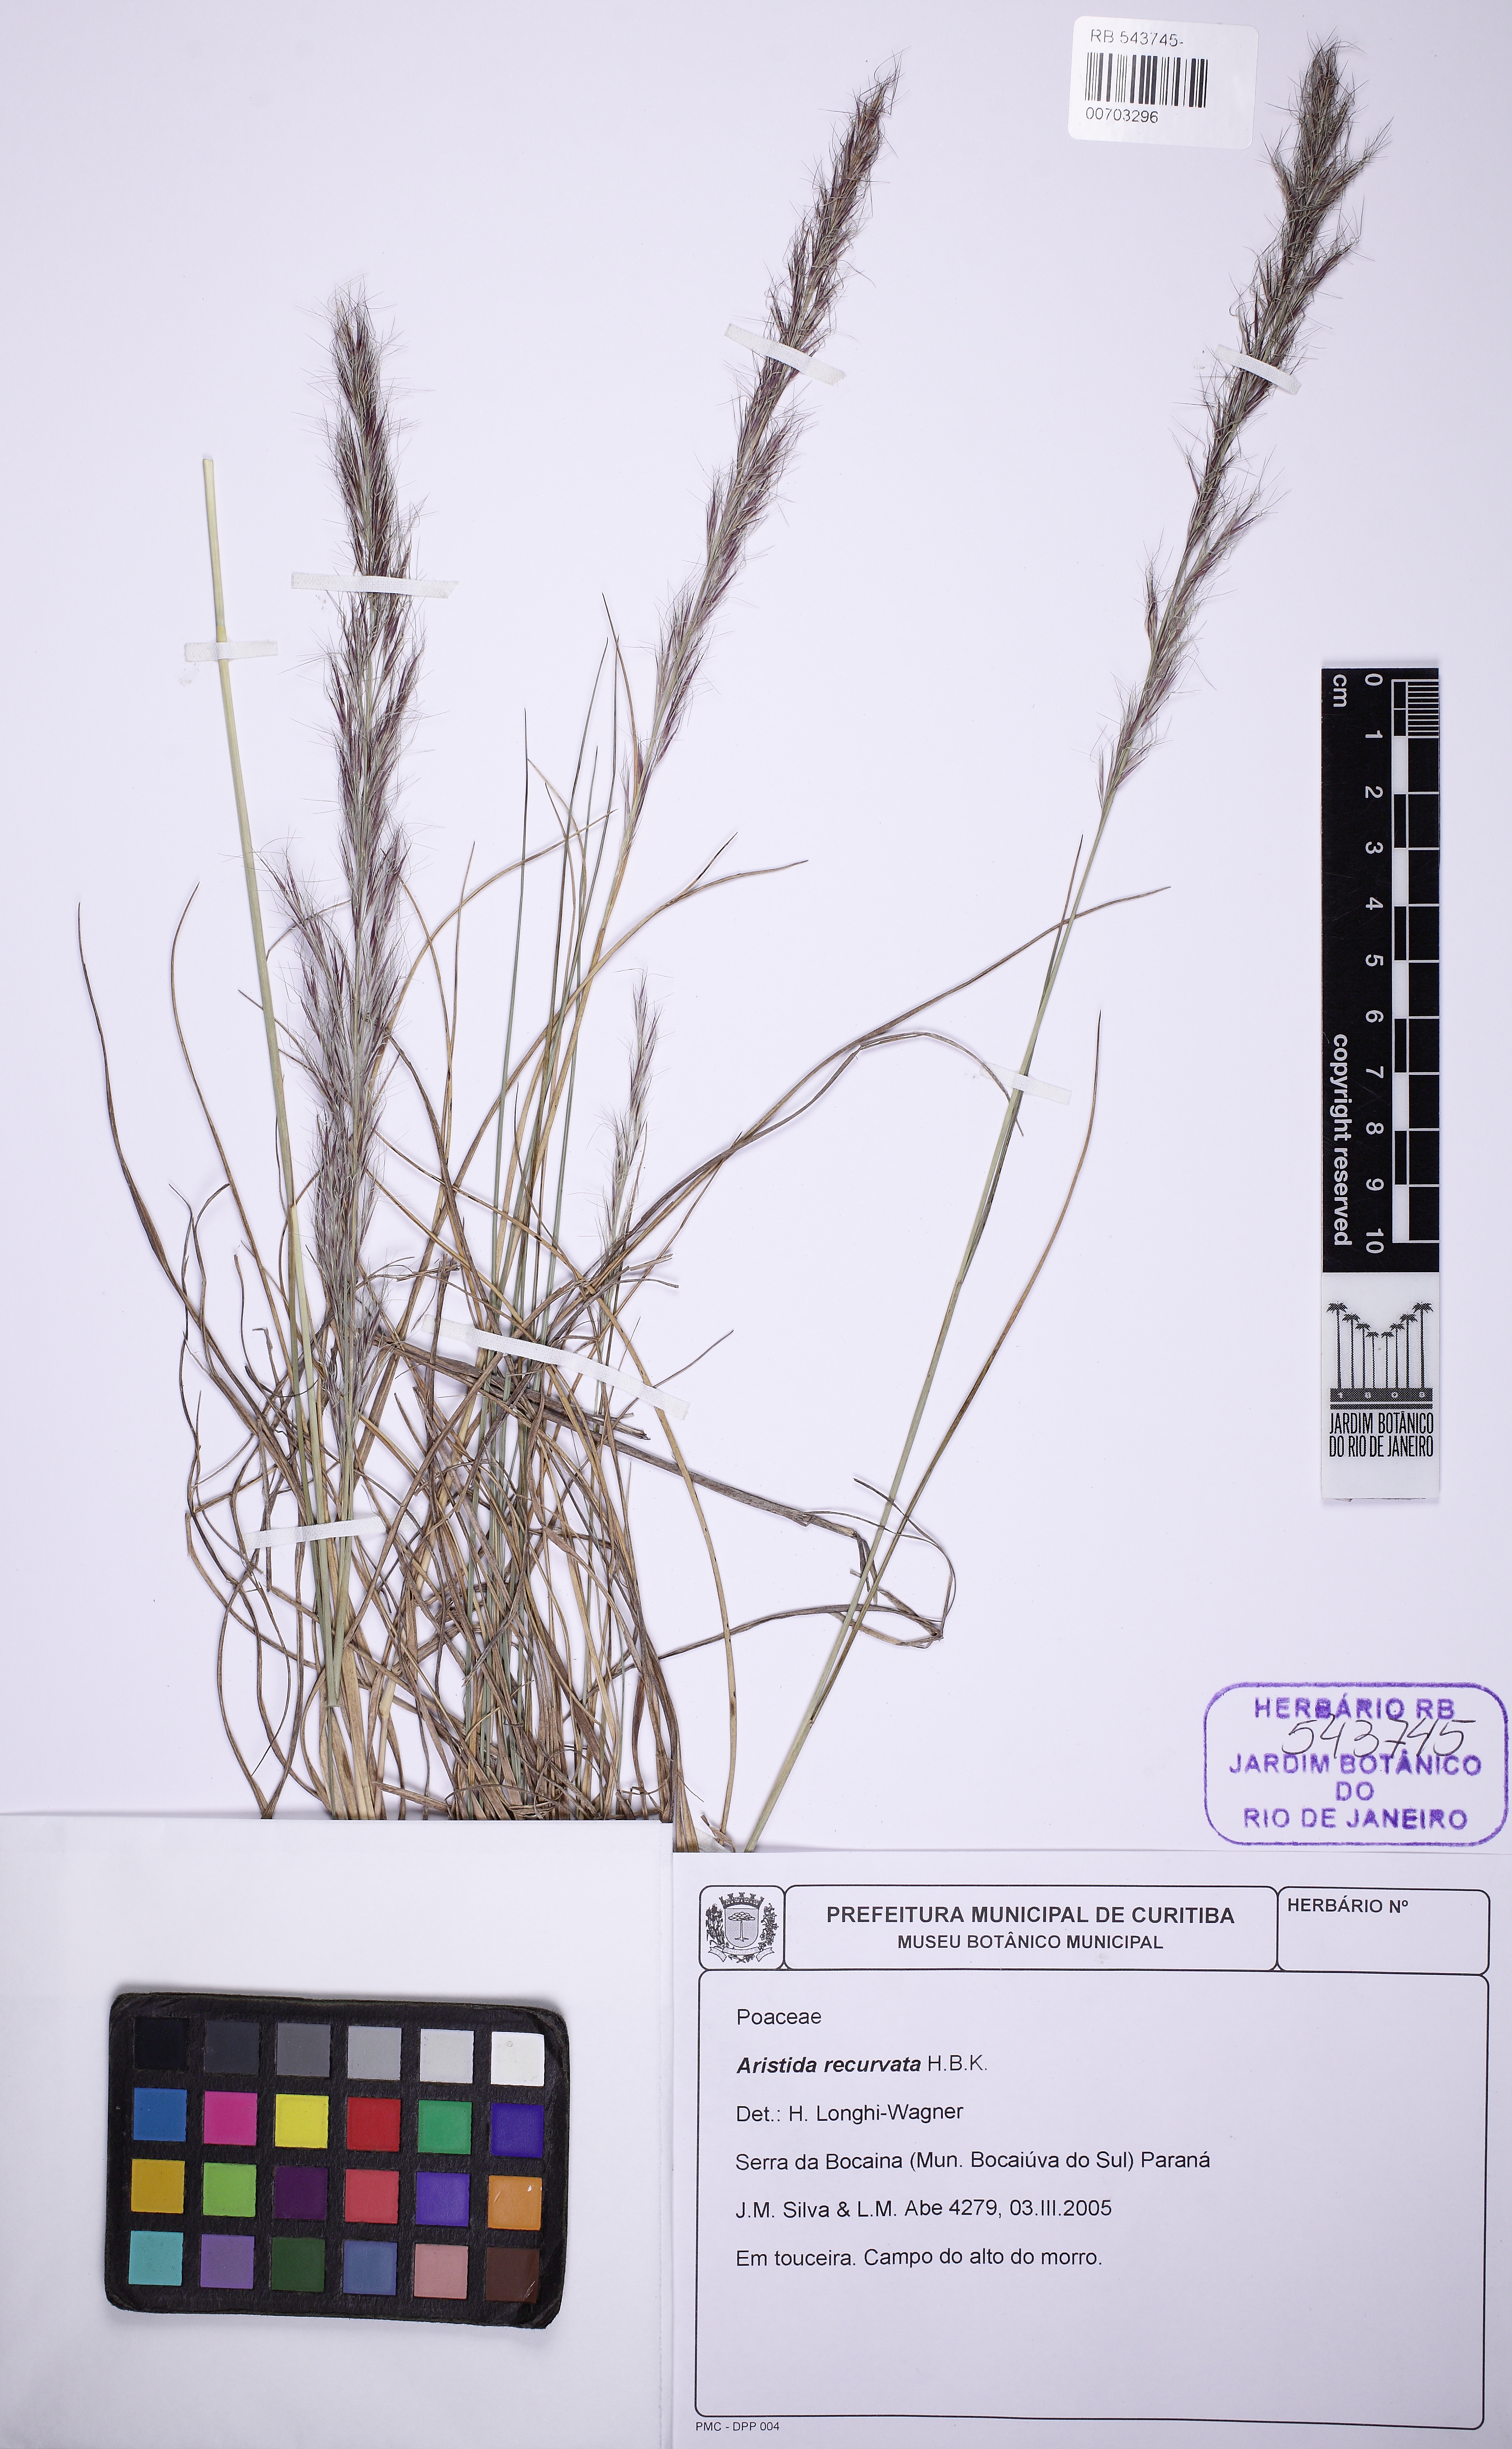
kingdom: Plantae
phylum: Tracheophyta
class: Liliopsida
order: Poales
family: Poaceae
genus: Aristida
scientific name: Aristida recurvata
